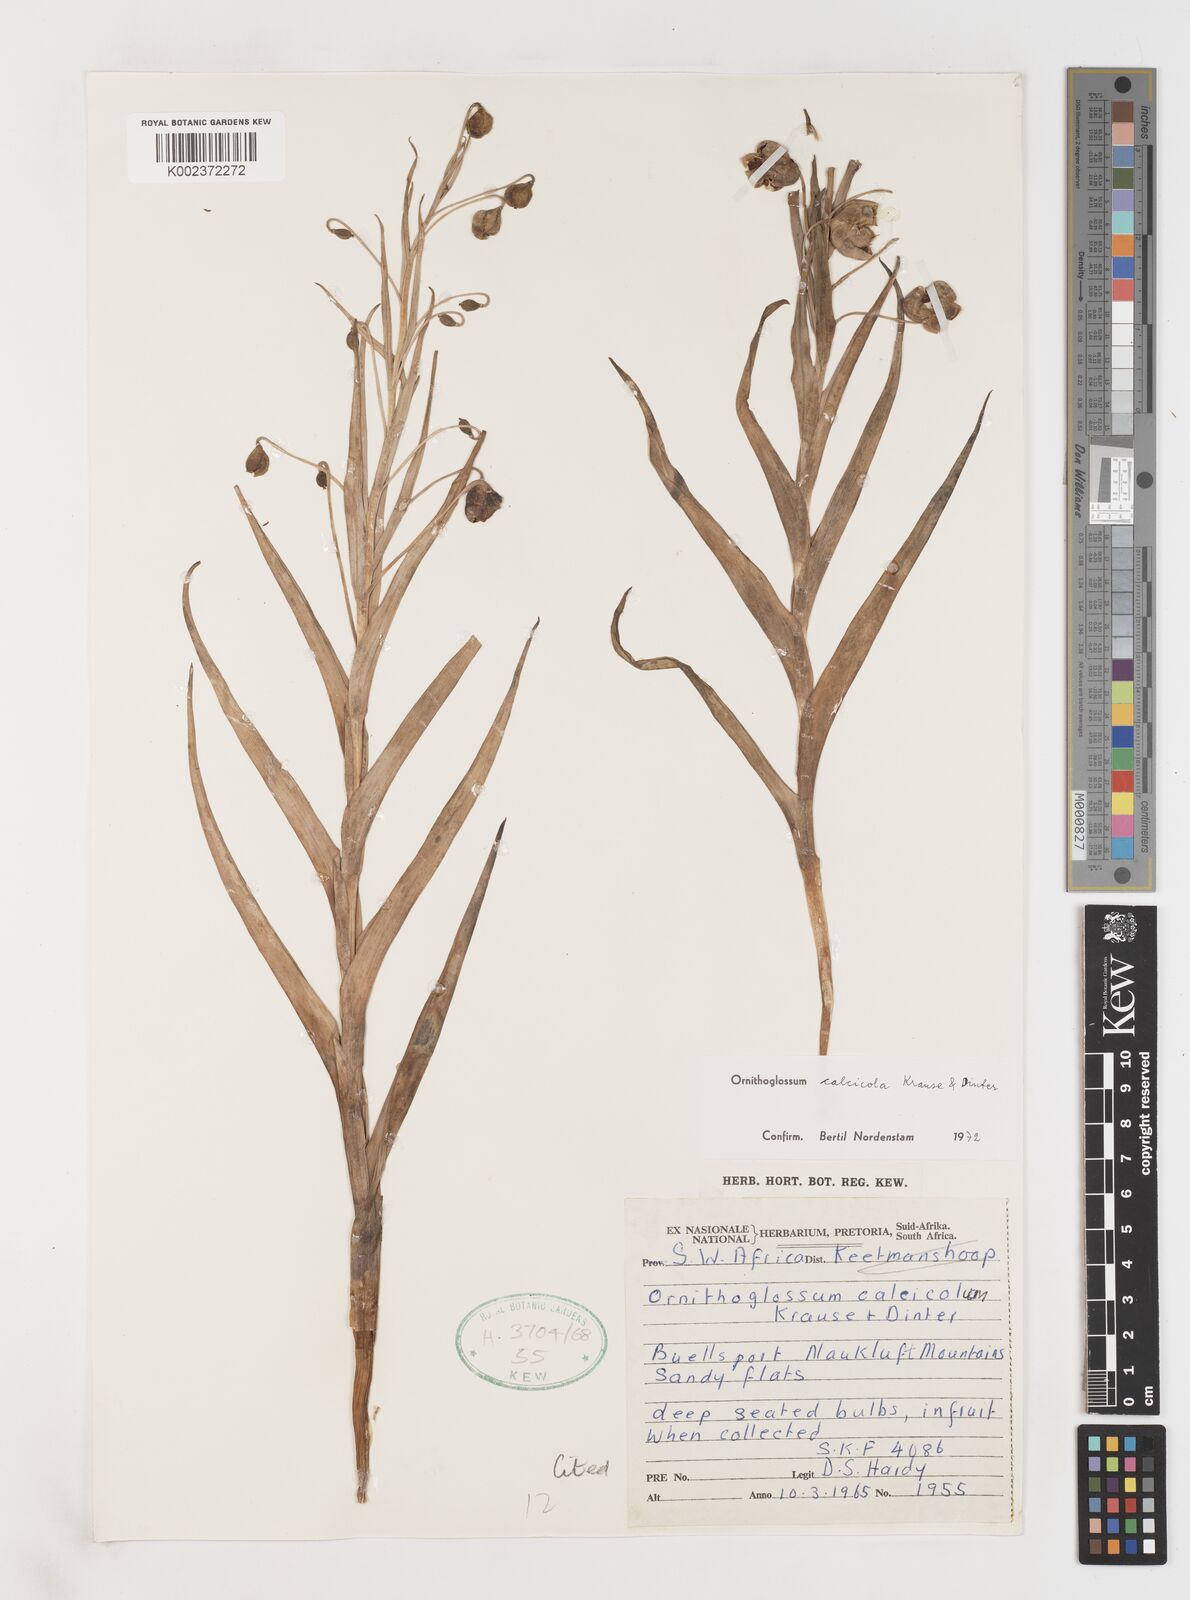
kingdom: Plantae
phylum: Tracheophyta
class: Liliopsida
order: Liliales
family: Colchicaceae
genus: Ornithoglossum
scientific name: Ornithoglossum calcicola
